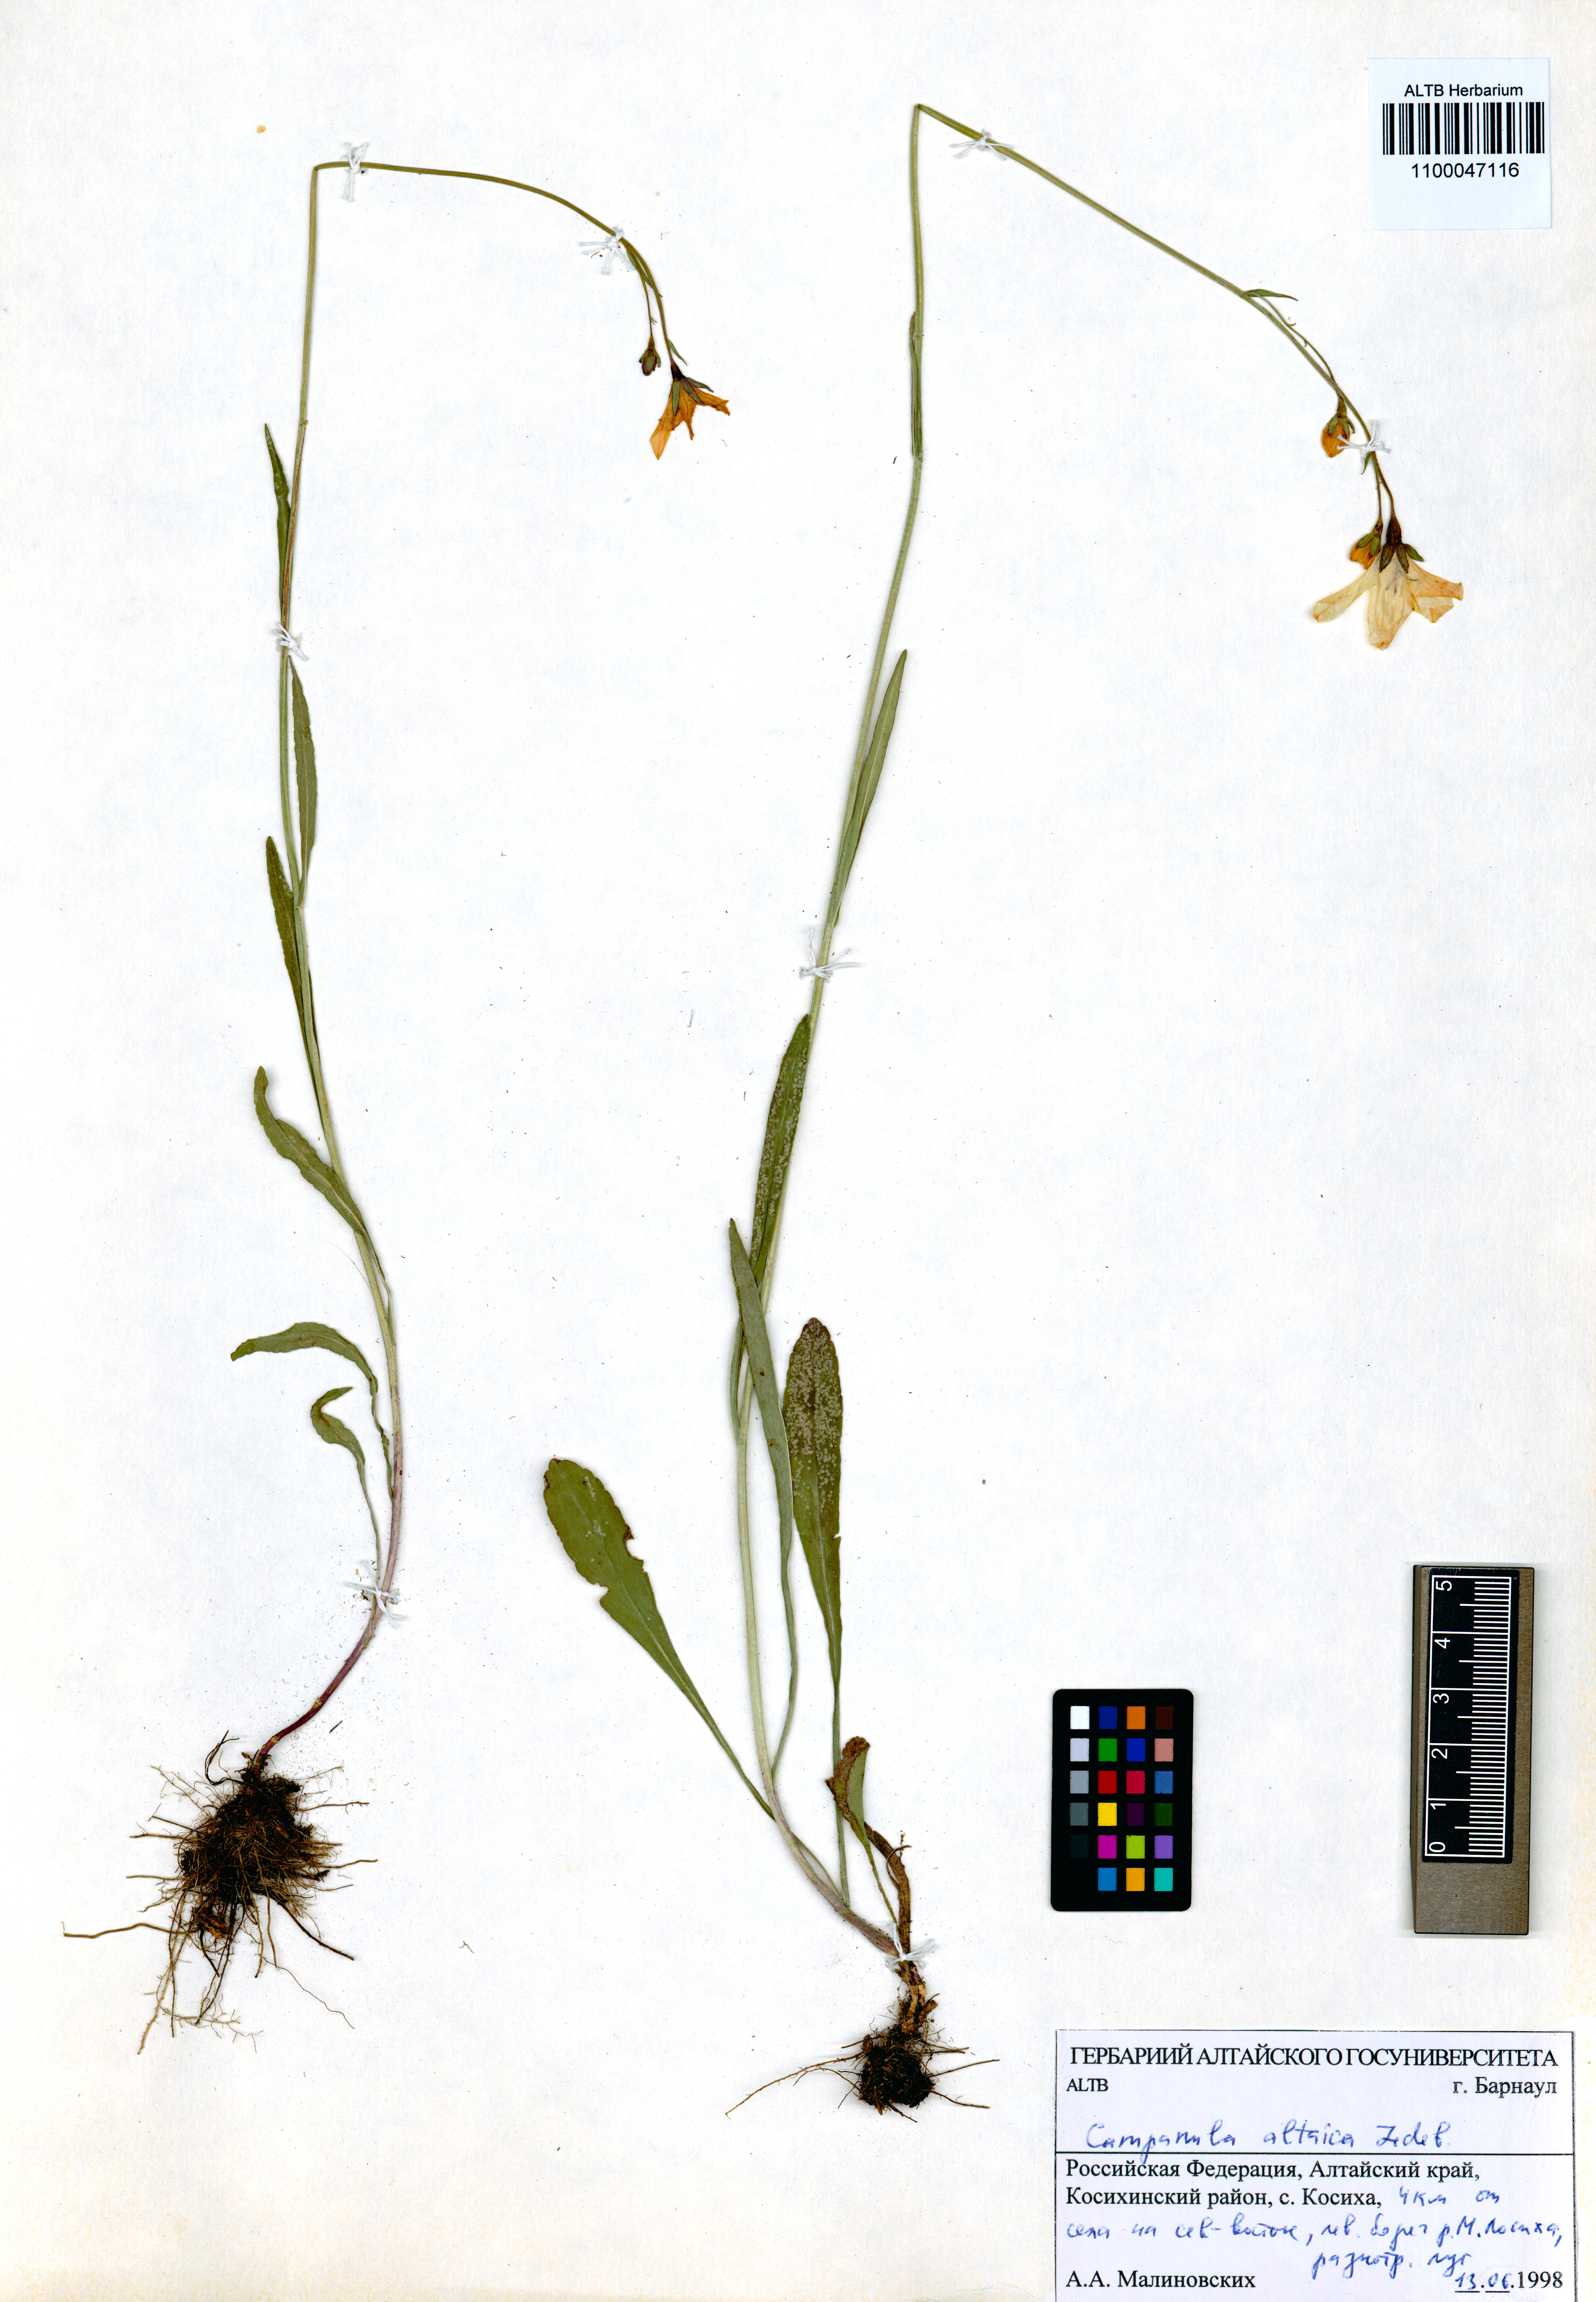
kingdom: Plantae
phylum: Tracheophyta
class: Magnoliopsida
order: Asterales
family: Campanulaceae
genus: Campanula
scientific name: Campanula stevenii
